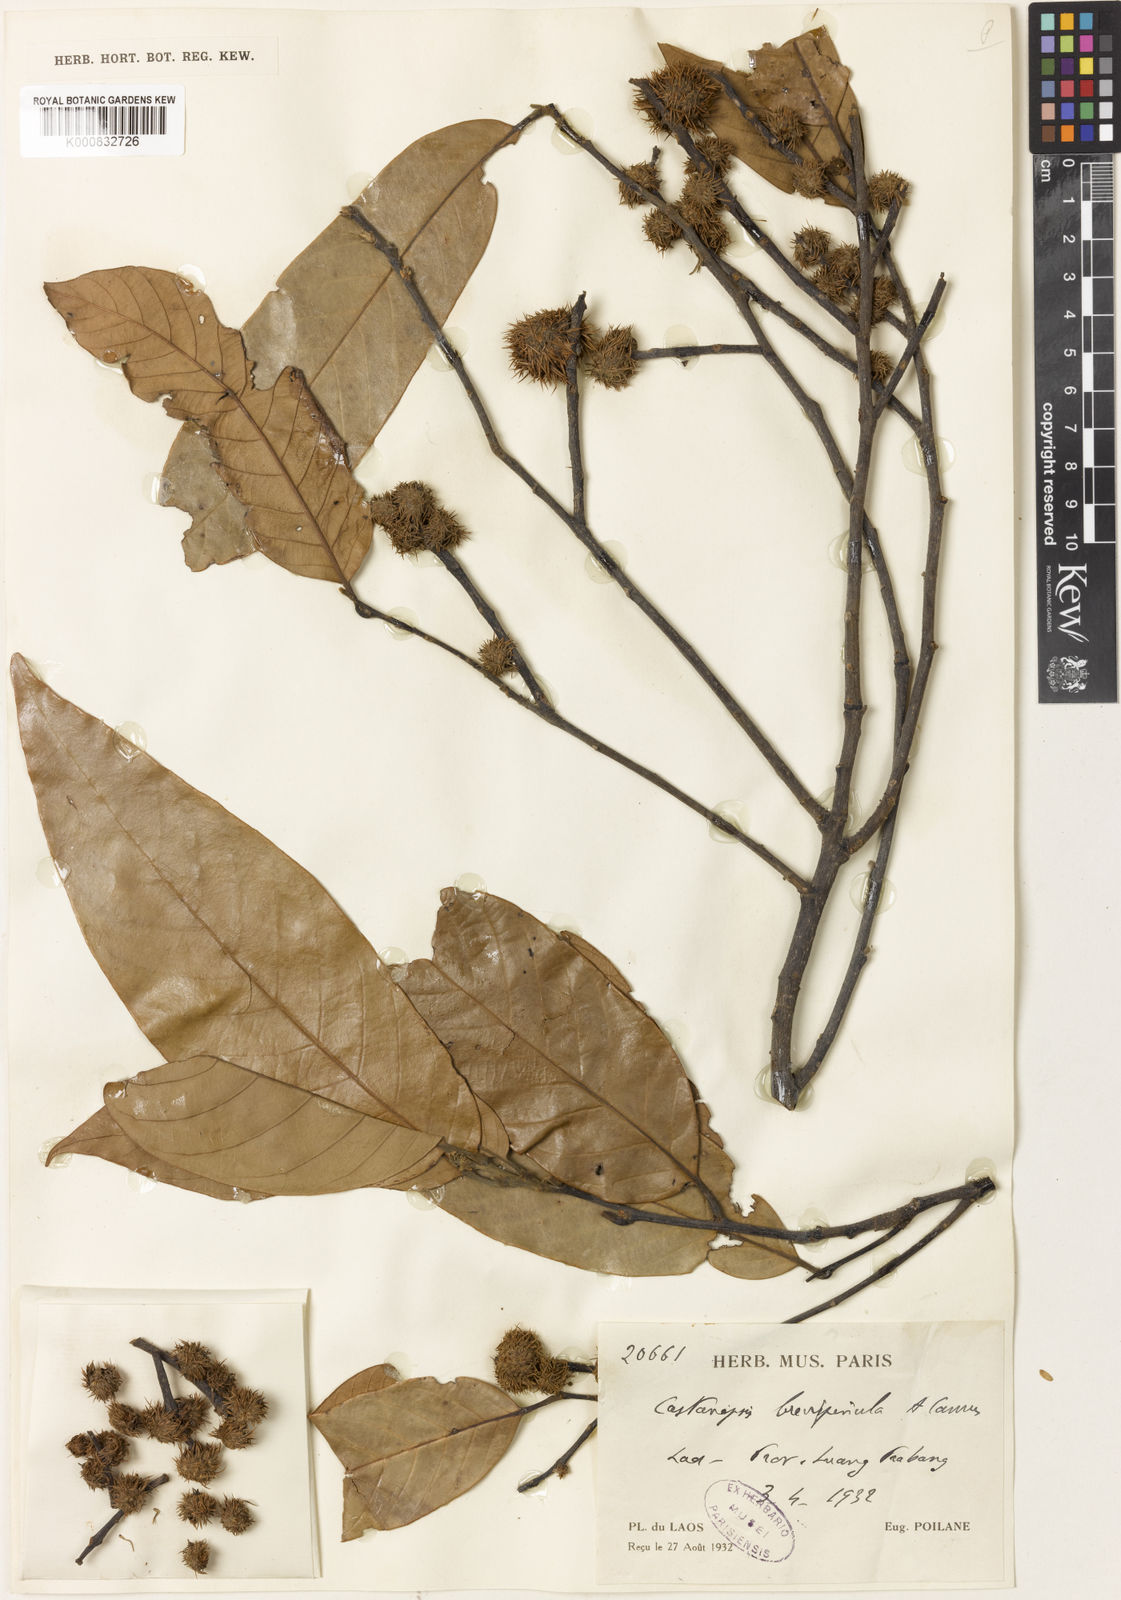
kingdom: Plantae
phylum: Tracheophyta
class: Magnoliopsida
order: Fagales
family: Fagaceae
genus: Castanopsis
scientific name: Castanopsis brevispinula
